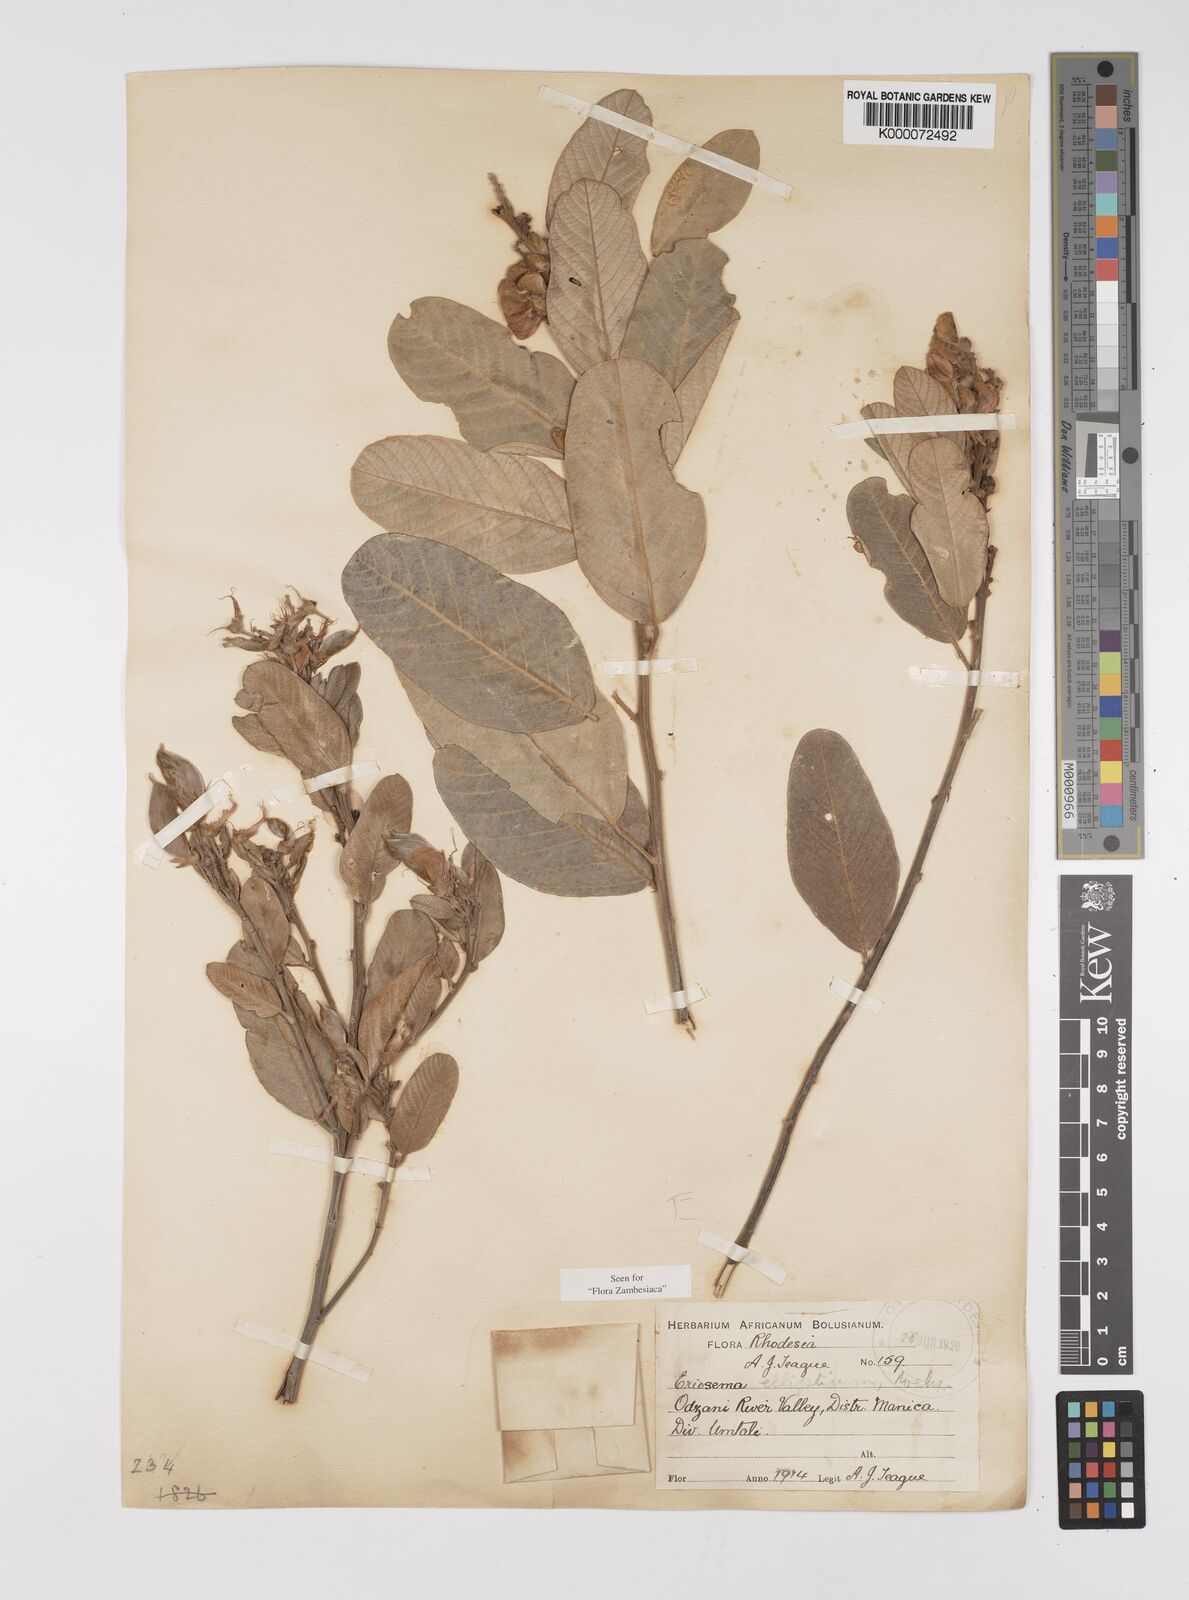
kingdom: Plantae
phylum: Tracheophyta
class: Magnoliopsida
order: Fabales
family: Fabaceae
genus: Eriosema
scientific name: Eriosema ellipticum
